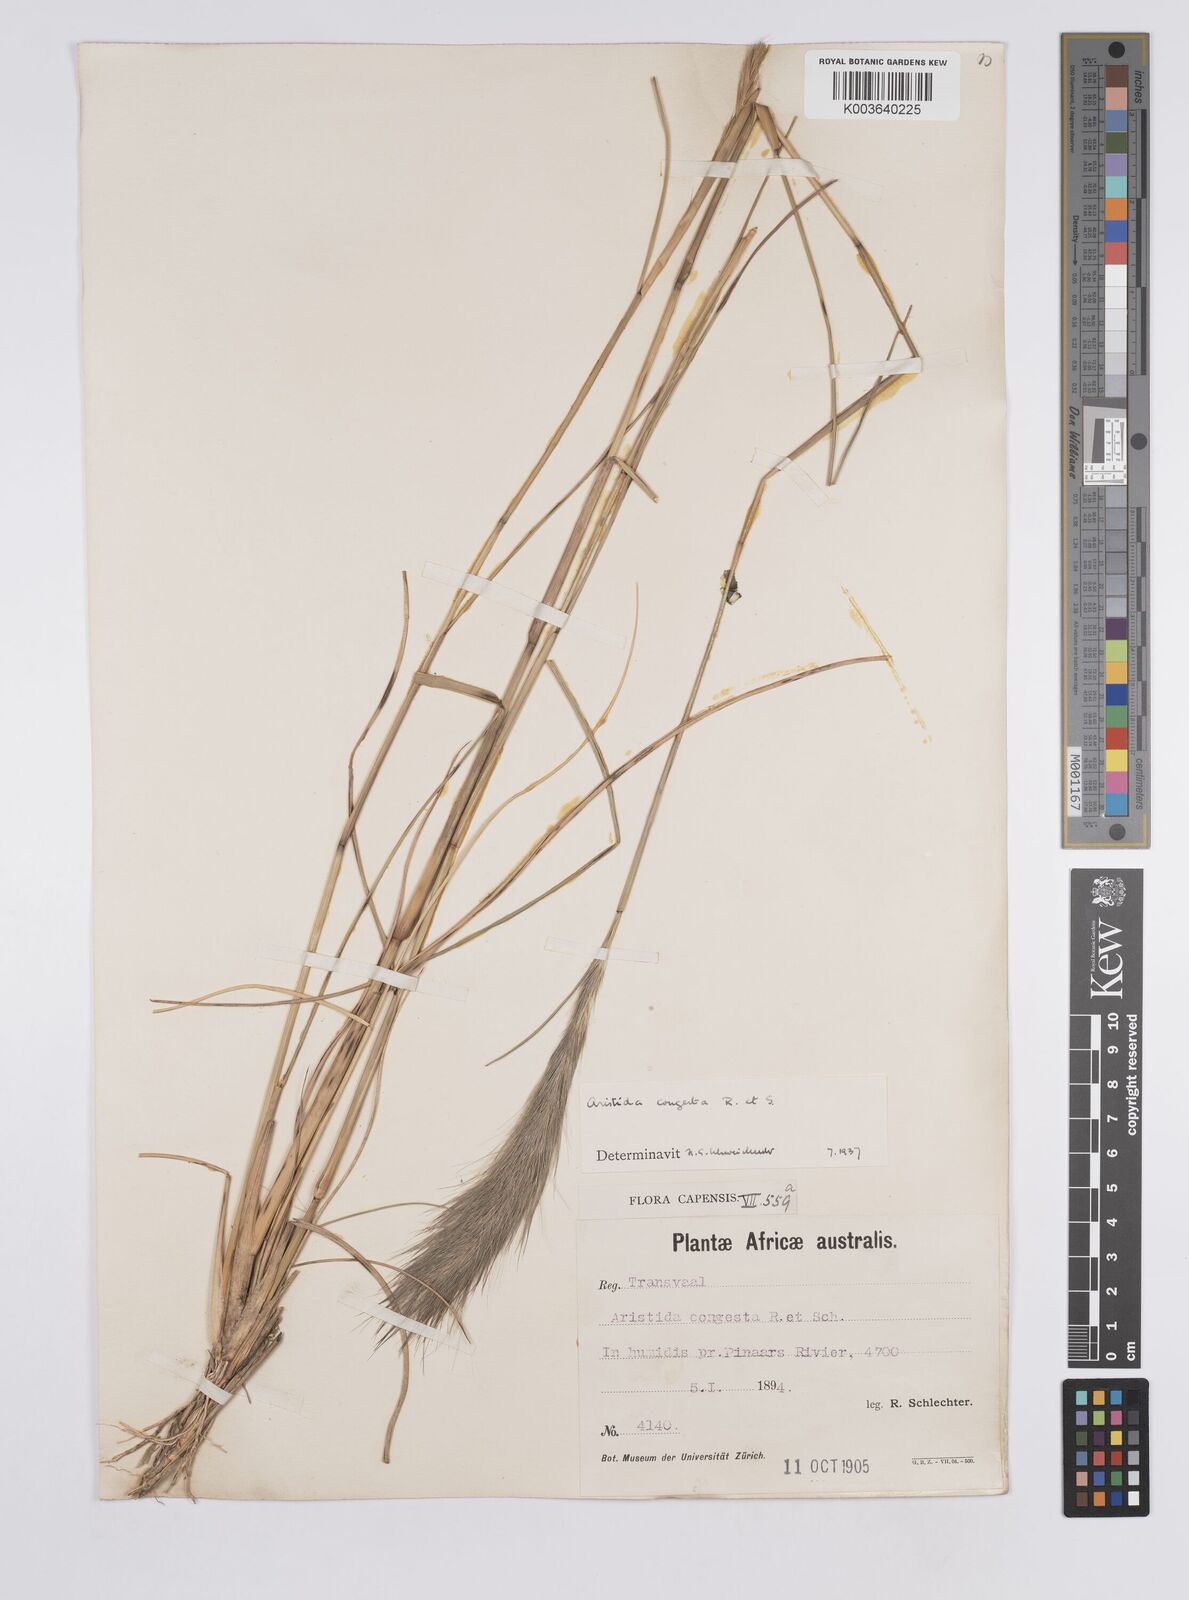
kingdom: Plantae
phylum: Tracheophyta
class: Liliopsida
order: Poales
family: Poaceae
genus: Aristida
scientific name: Aristida congesta
